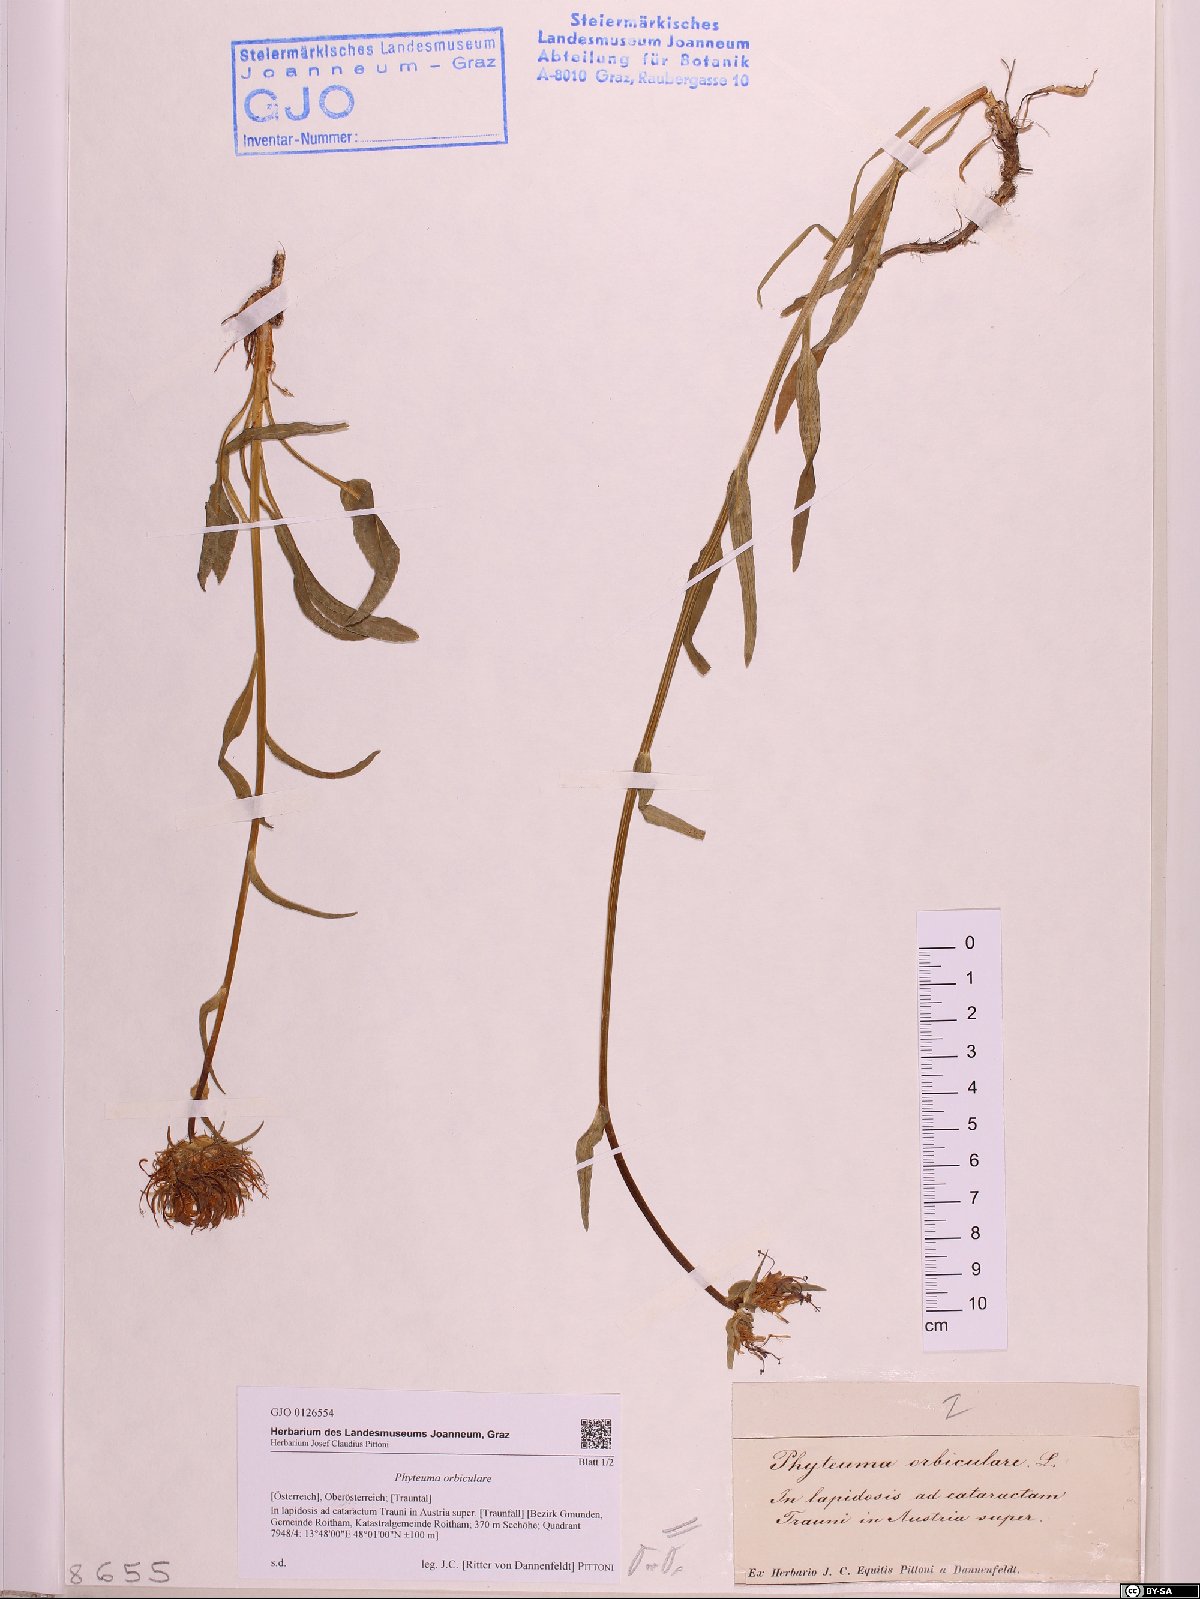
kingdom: Plantae
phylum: Tracheophyta
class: Magnoliopsida
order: Asterales
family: Campanulaceae
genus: Phyteuma
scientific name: Phyteuma orbiculare
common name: Round-headed rampion
